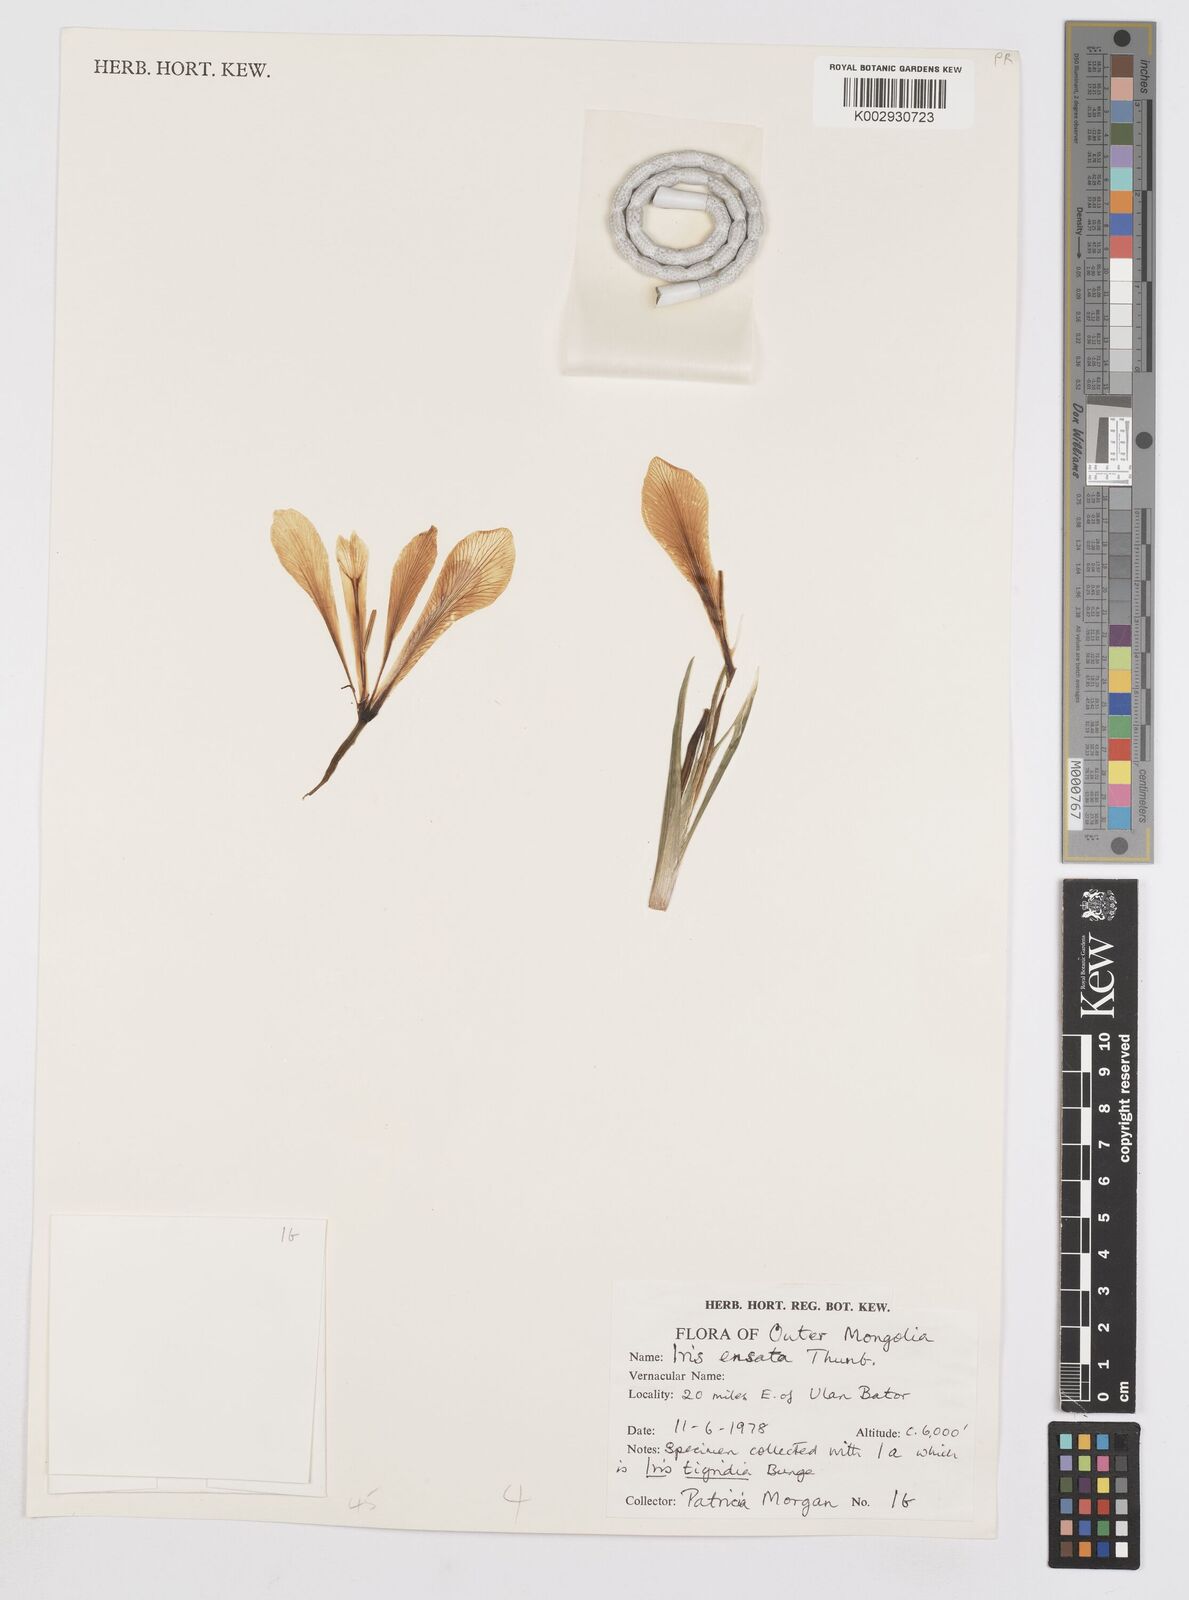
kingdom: Plantae
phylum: Tracheophyta
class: Liliopsida
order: Asparagales
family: Iridaceae
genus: Iris
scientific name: Iris ensata
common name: Beaked iris
